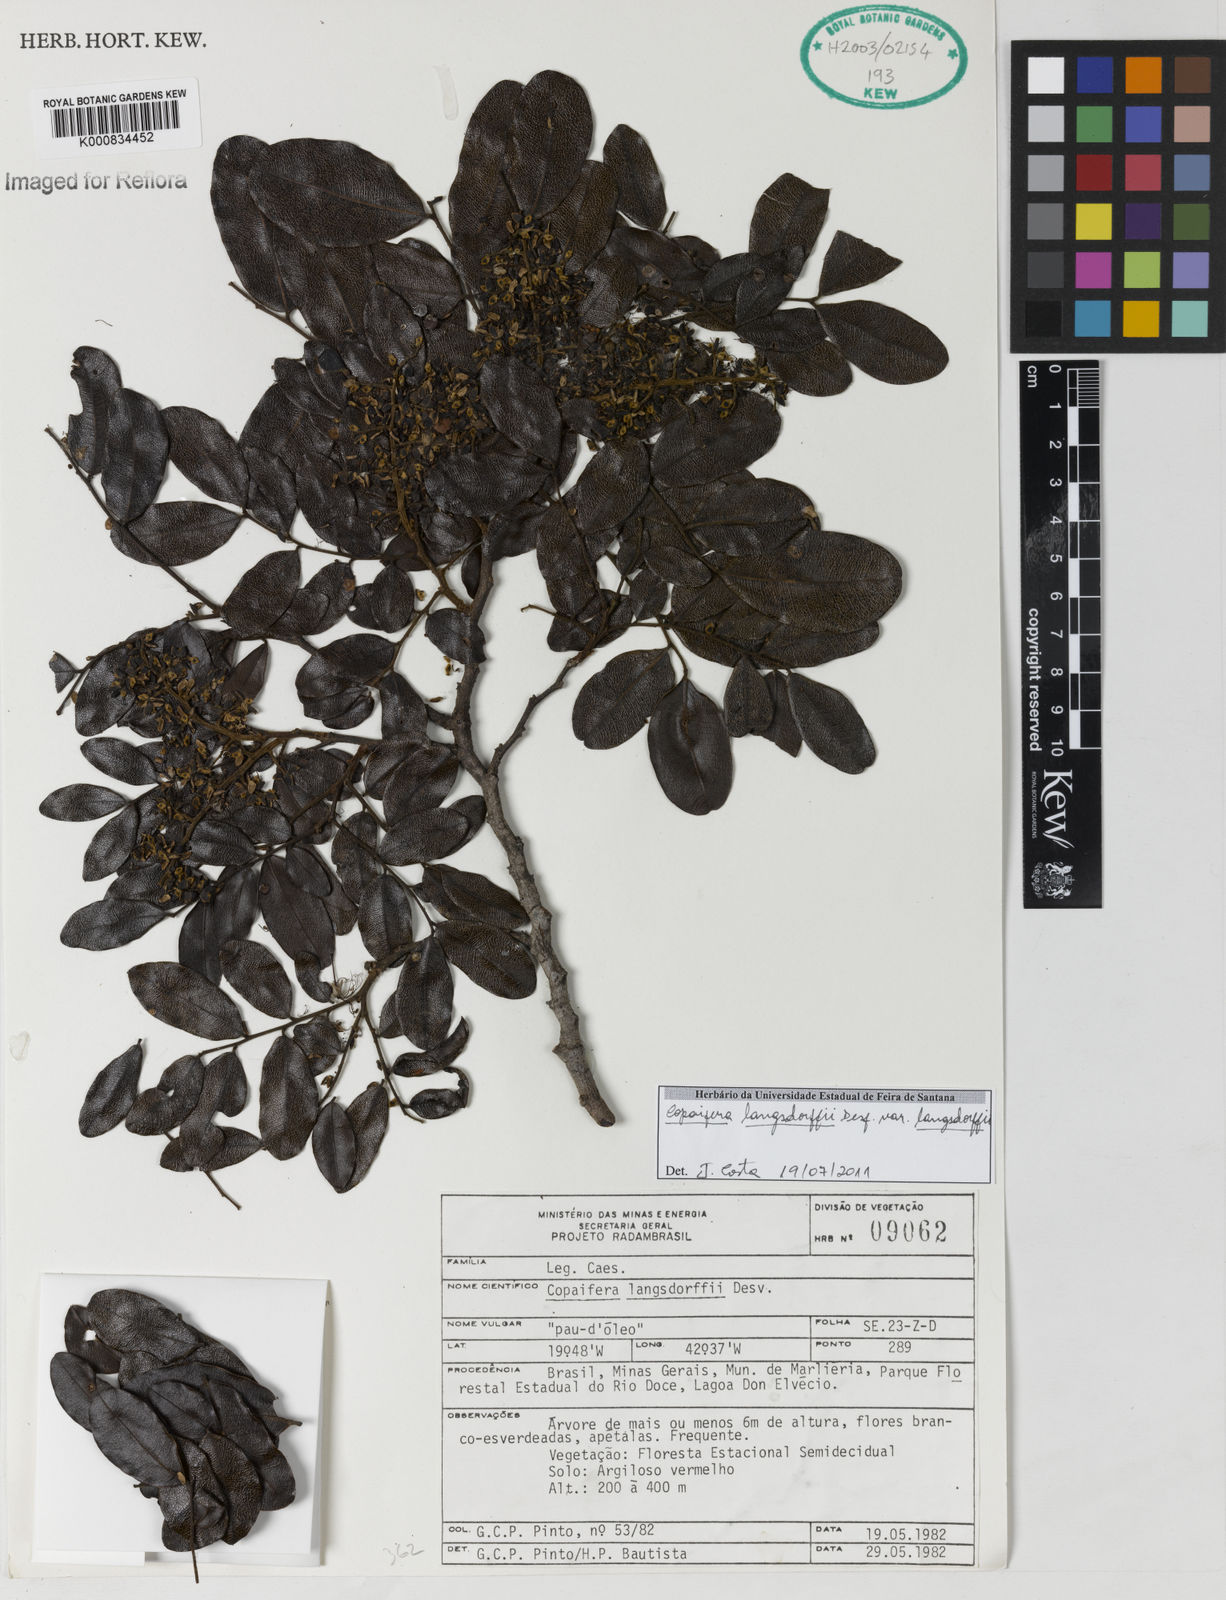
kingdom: Plantae
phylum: Tracheophyta
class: Magnoliopsida
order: Fabales
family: Fabaceae
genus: Copaifera
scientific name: Copaifera langsdorffii
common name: Brazilian diesel tree
